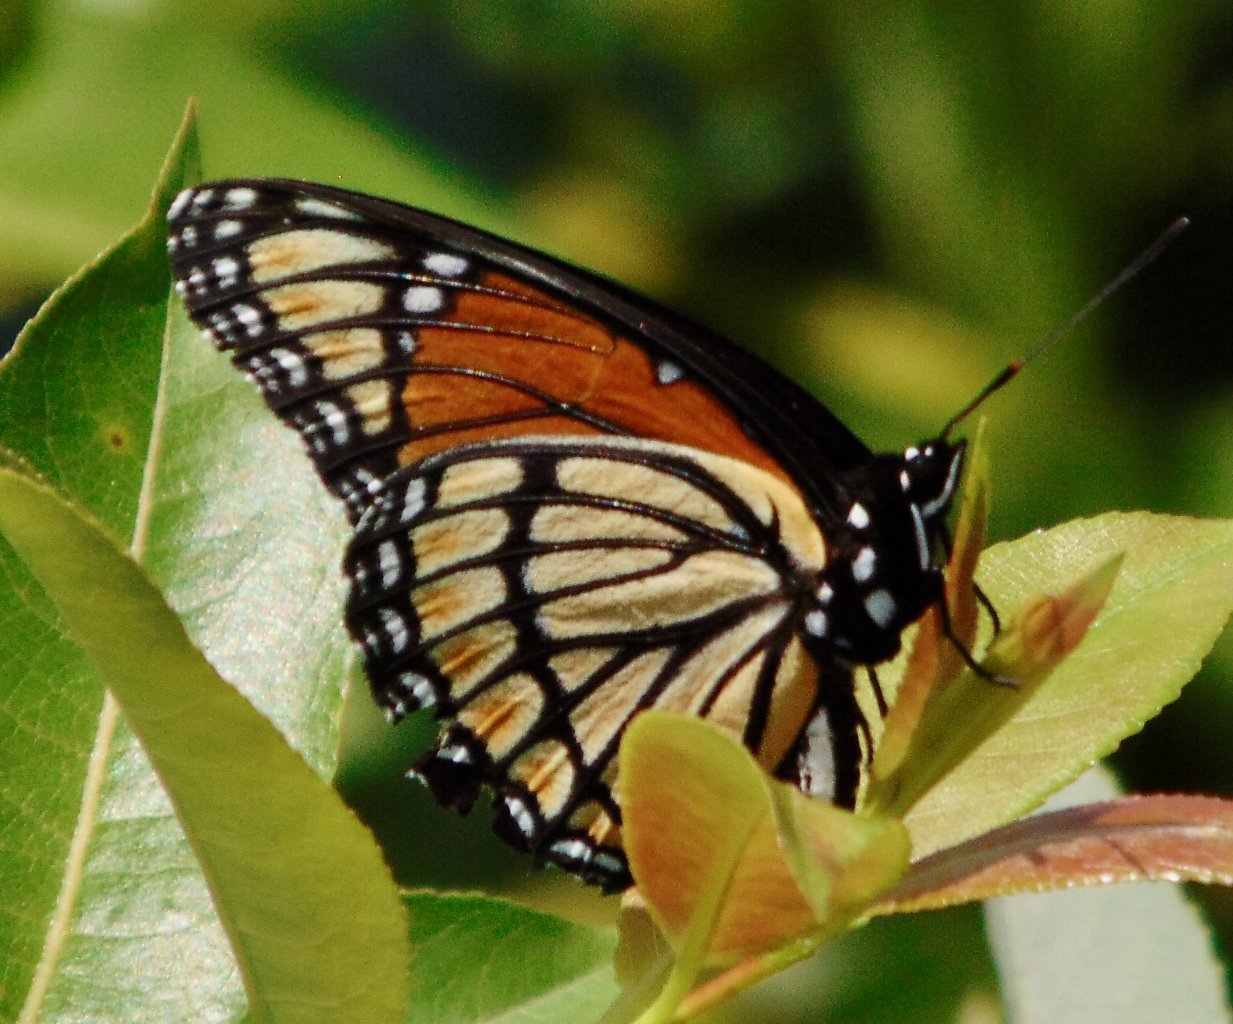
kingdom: Animalia
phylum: Arthropoda
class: Insecta
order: Lepidoptera
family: Nymphalidae
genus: Limenitis
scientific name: Limenitis archippus
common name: Viceroy
